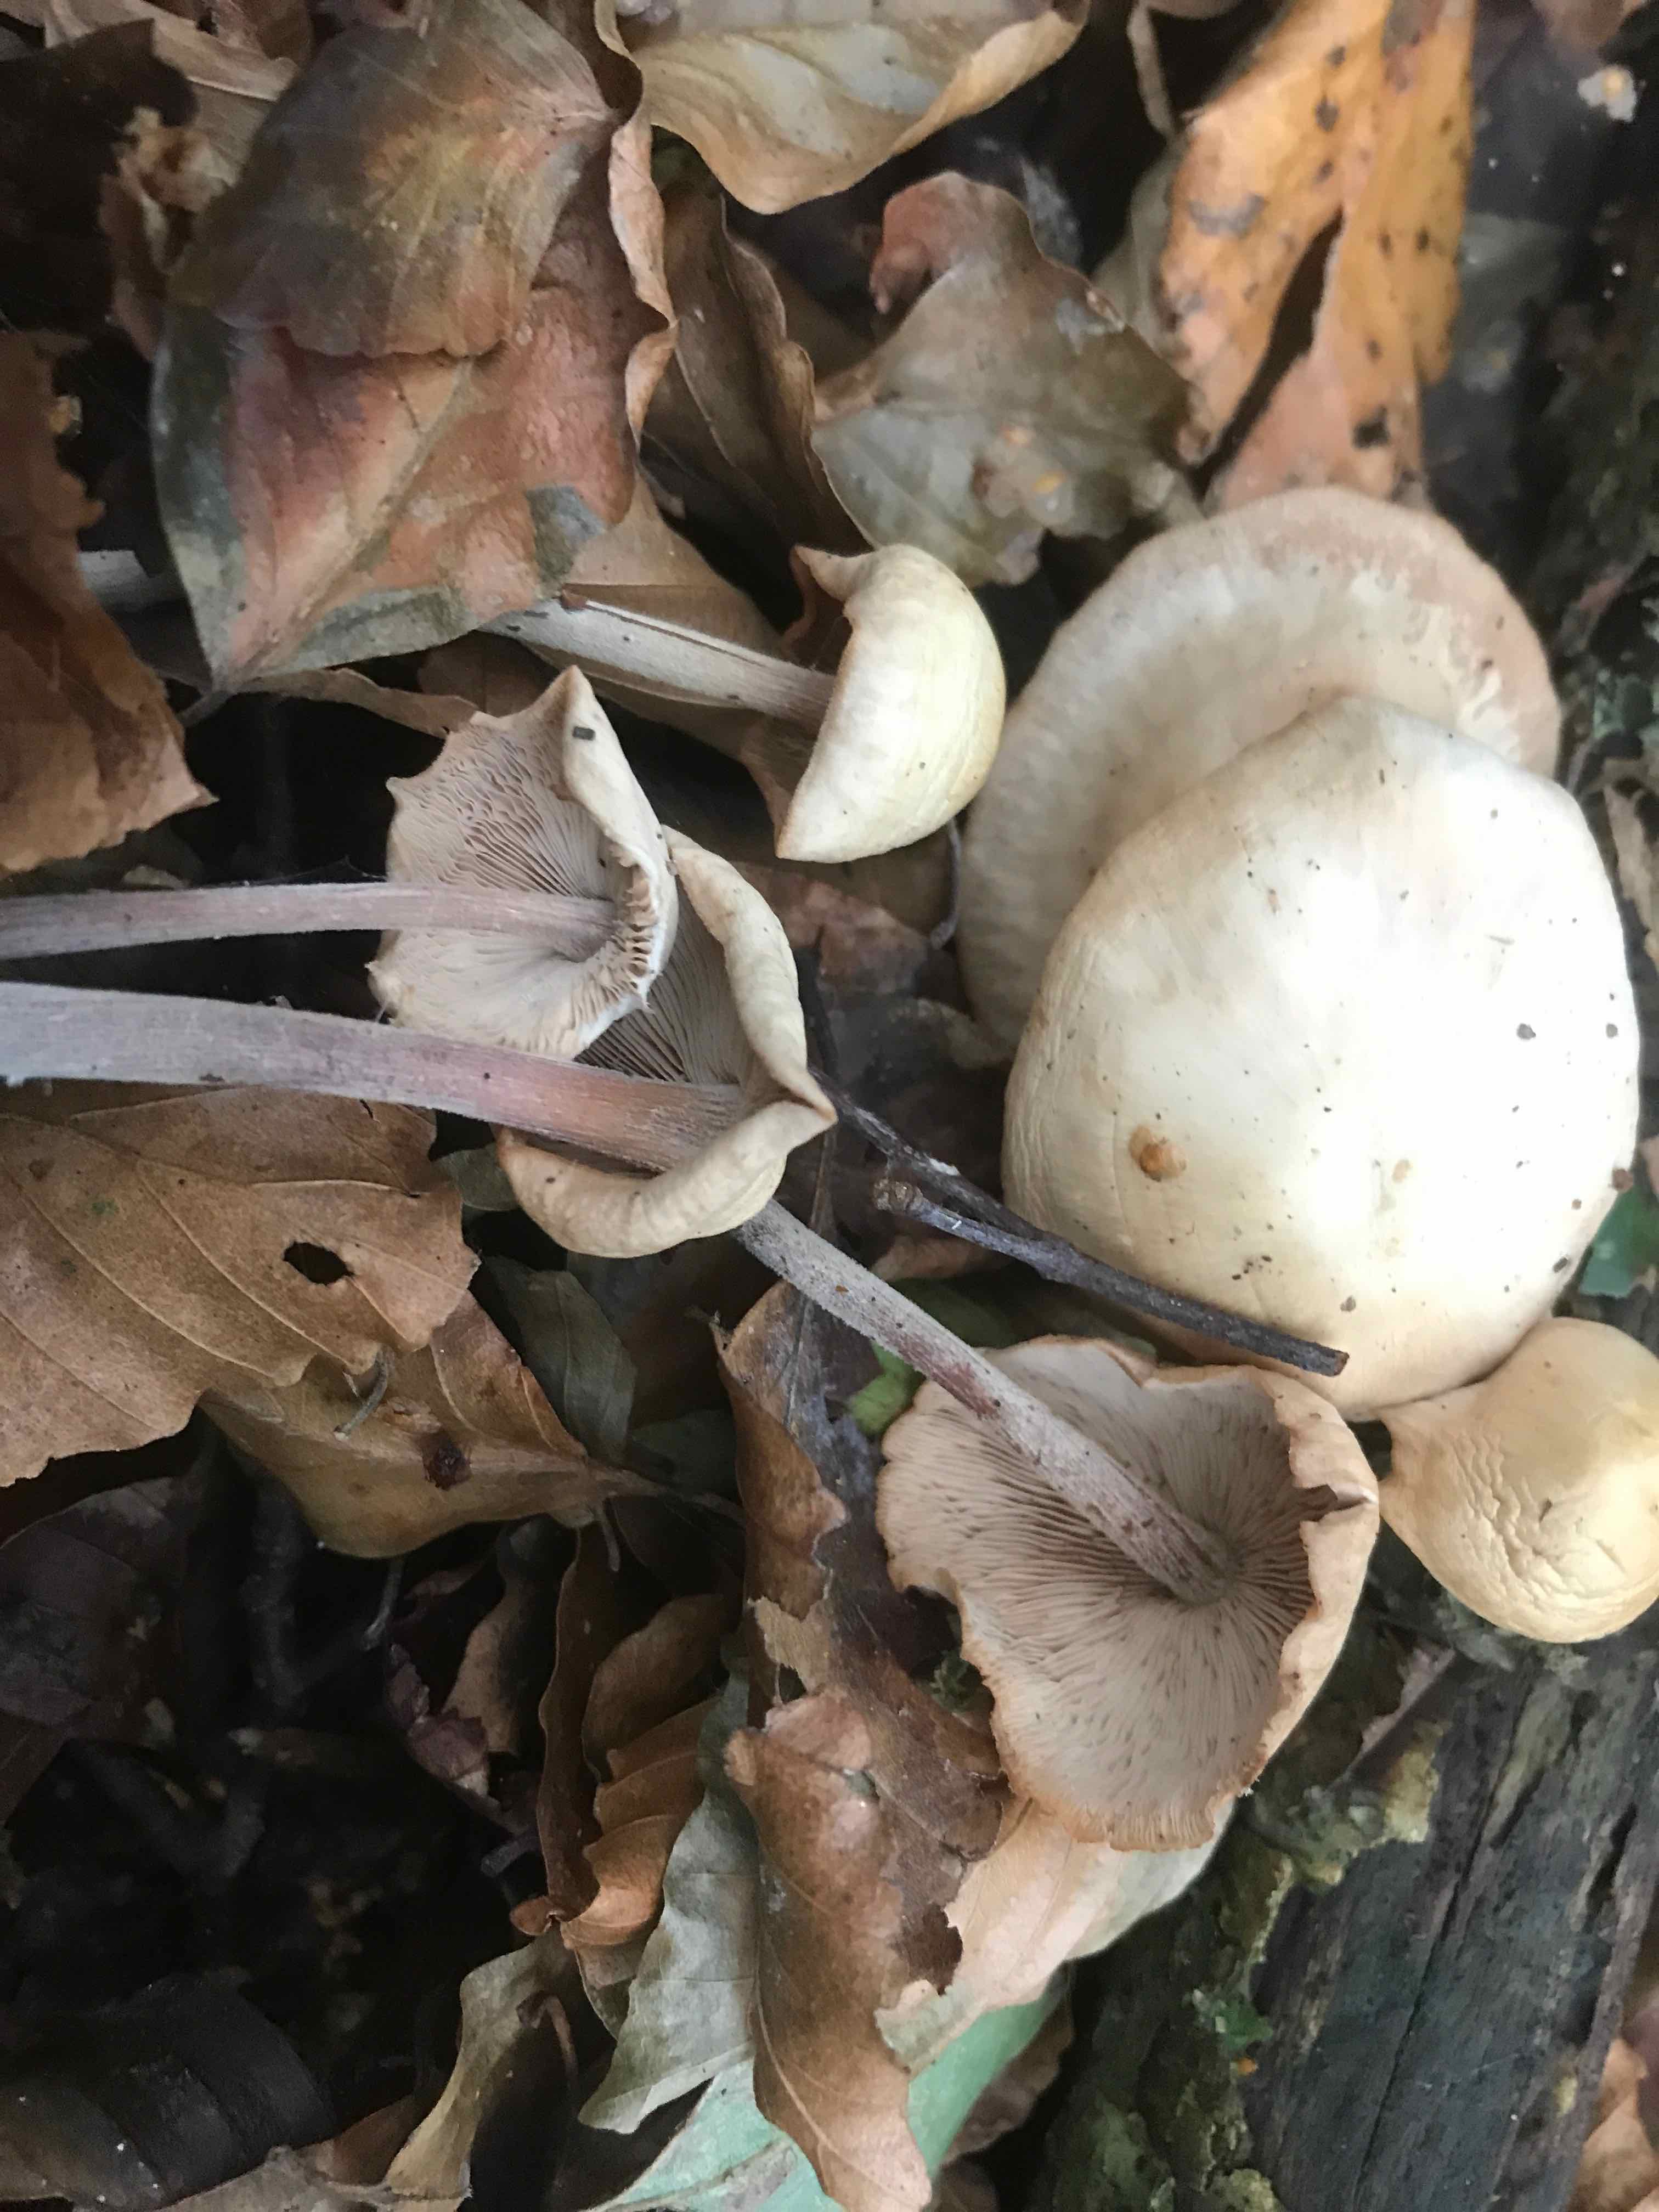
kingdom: Fungi
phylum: Basidiomycota
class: Agaricomycetes
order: Agaricales
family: Omphalotaceae
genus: Collybiopsis
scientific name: Collybiopsis confluens
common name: knippe-fladhat
